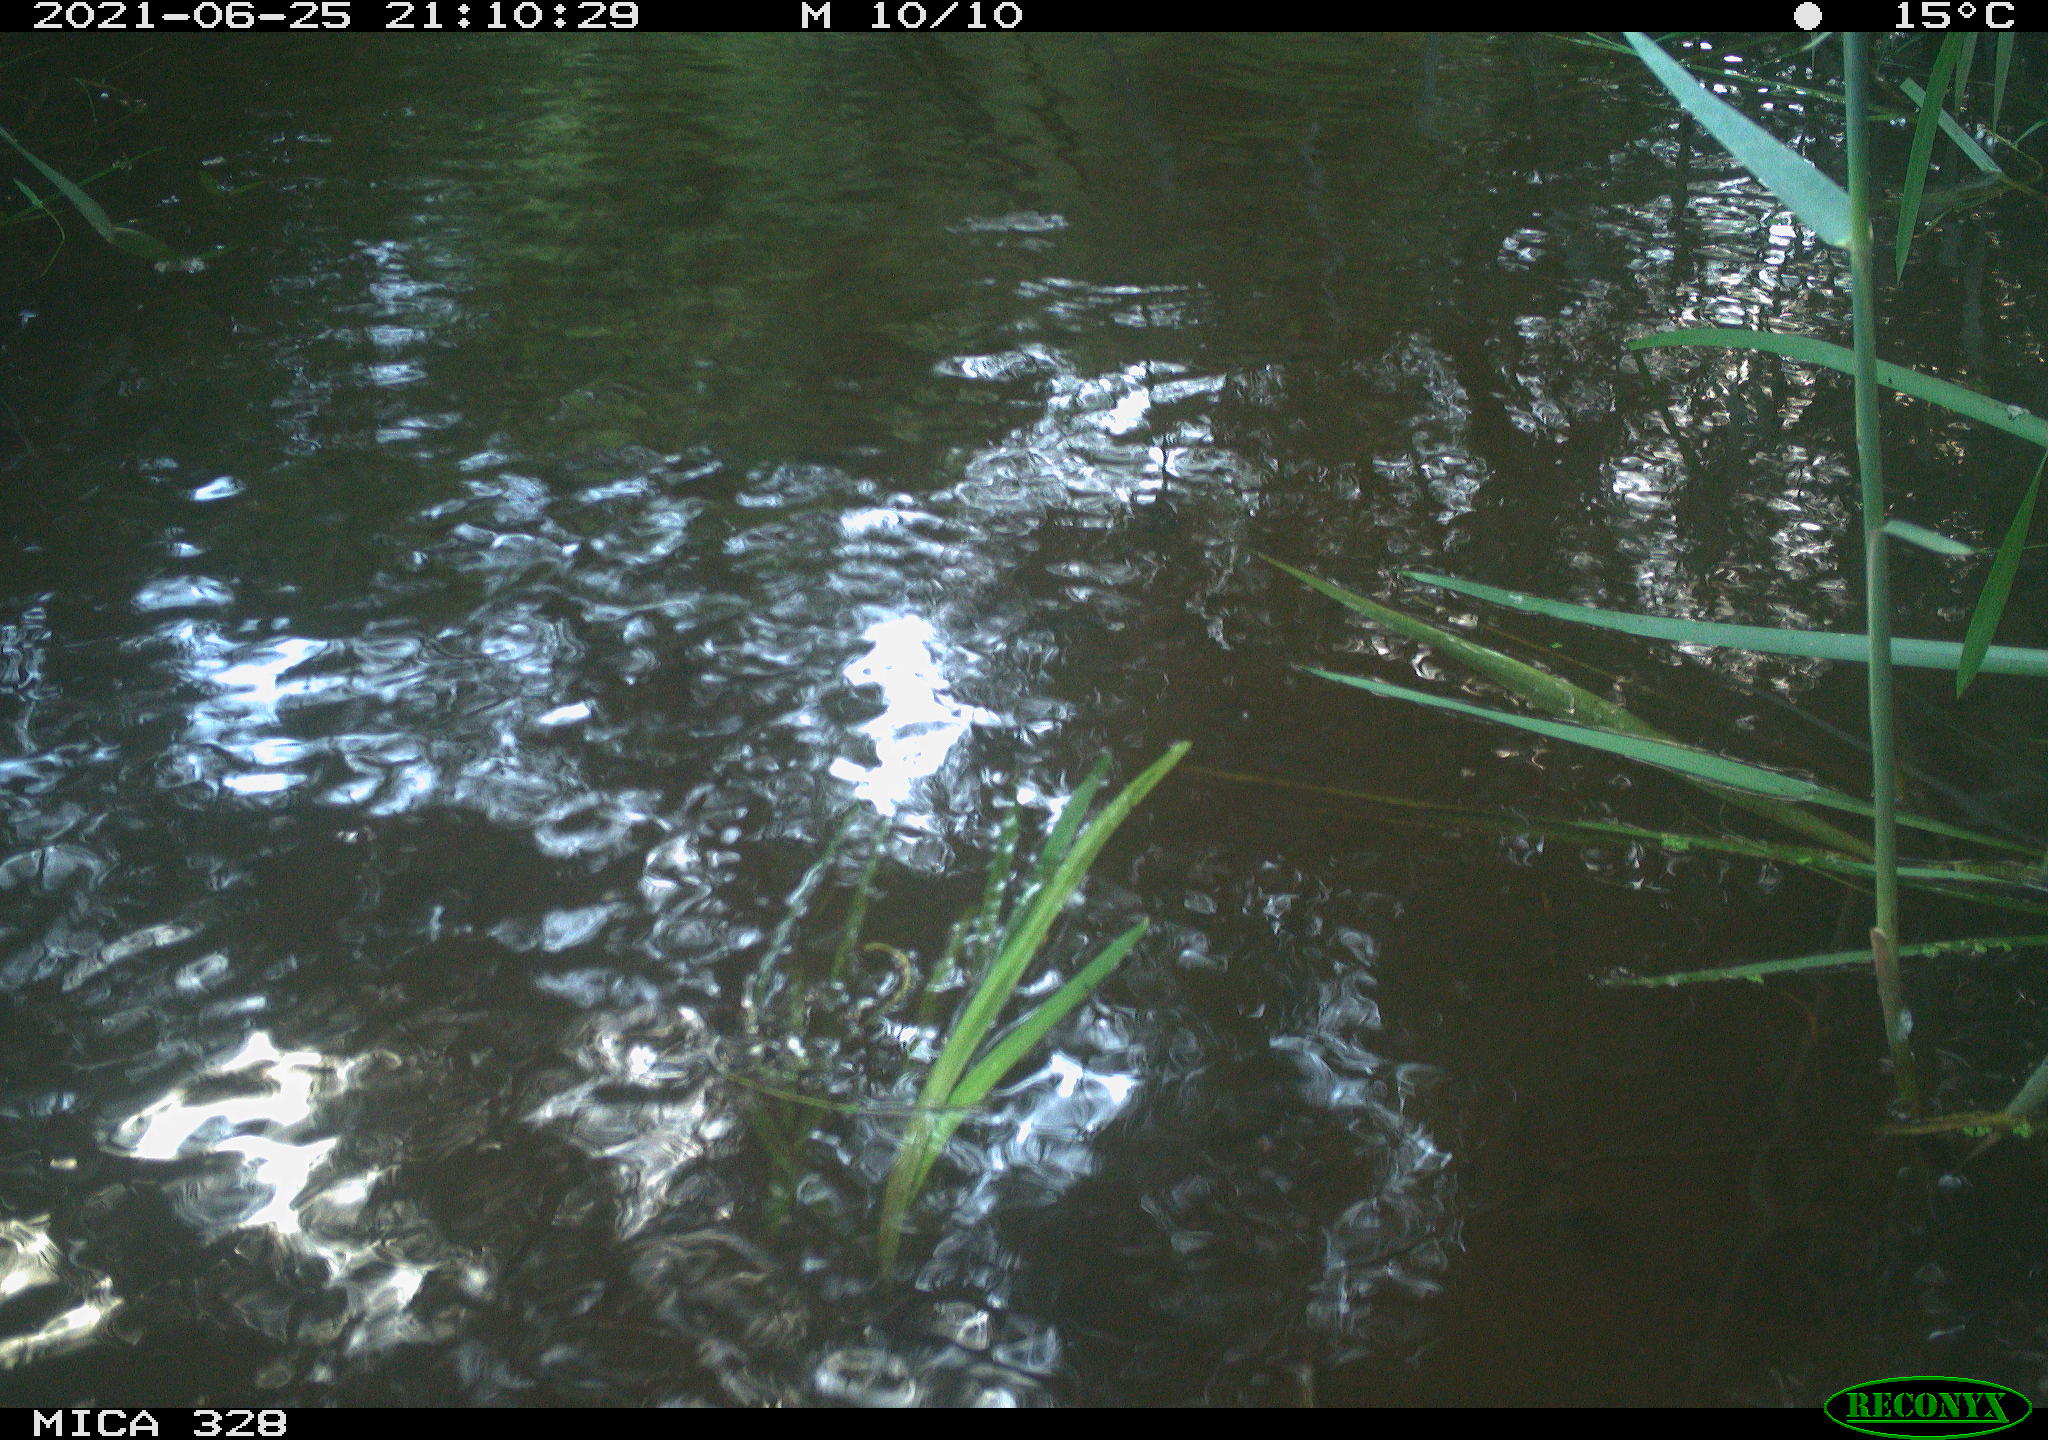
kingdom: Animalia
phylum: Chordata
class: Mammalia
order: Rodentia
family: Cricetidae
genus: Ondatra
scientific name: Ondatra zibethicus
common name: Muskrat
